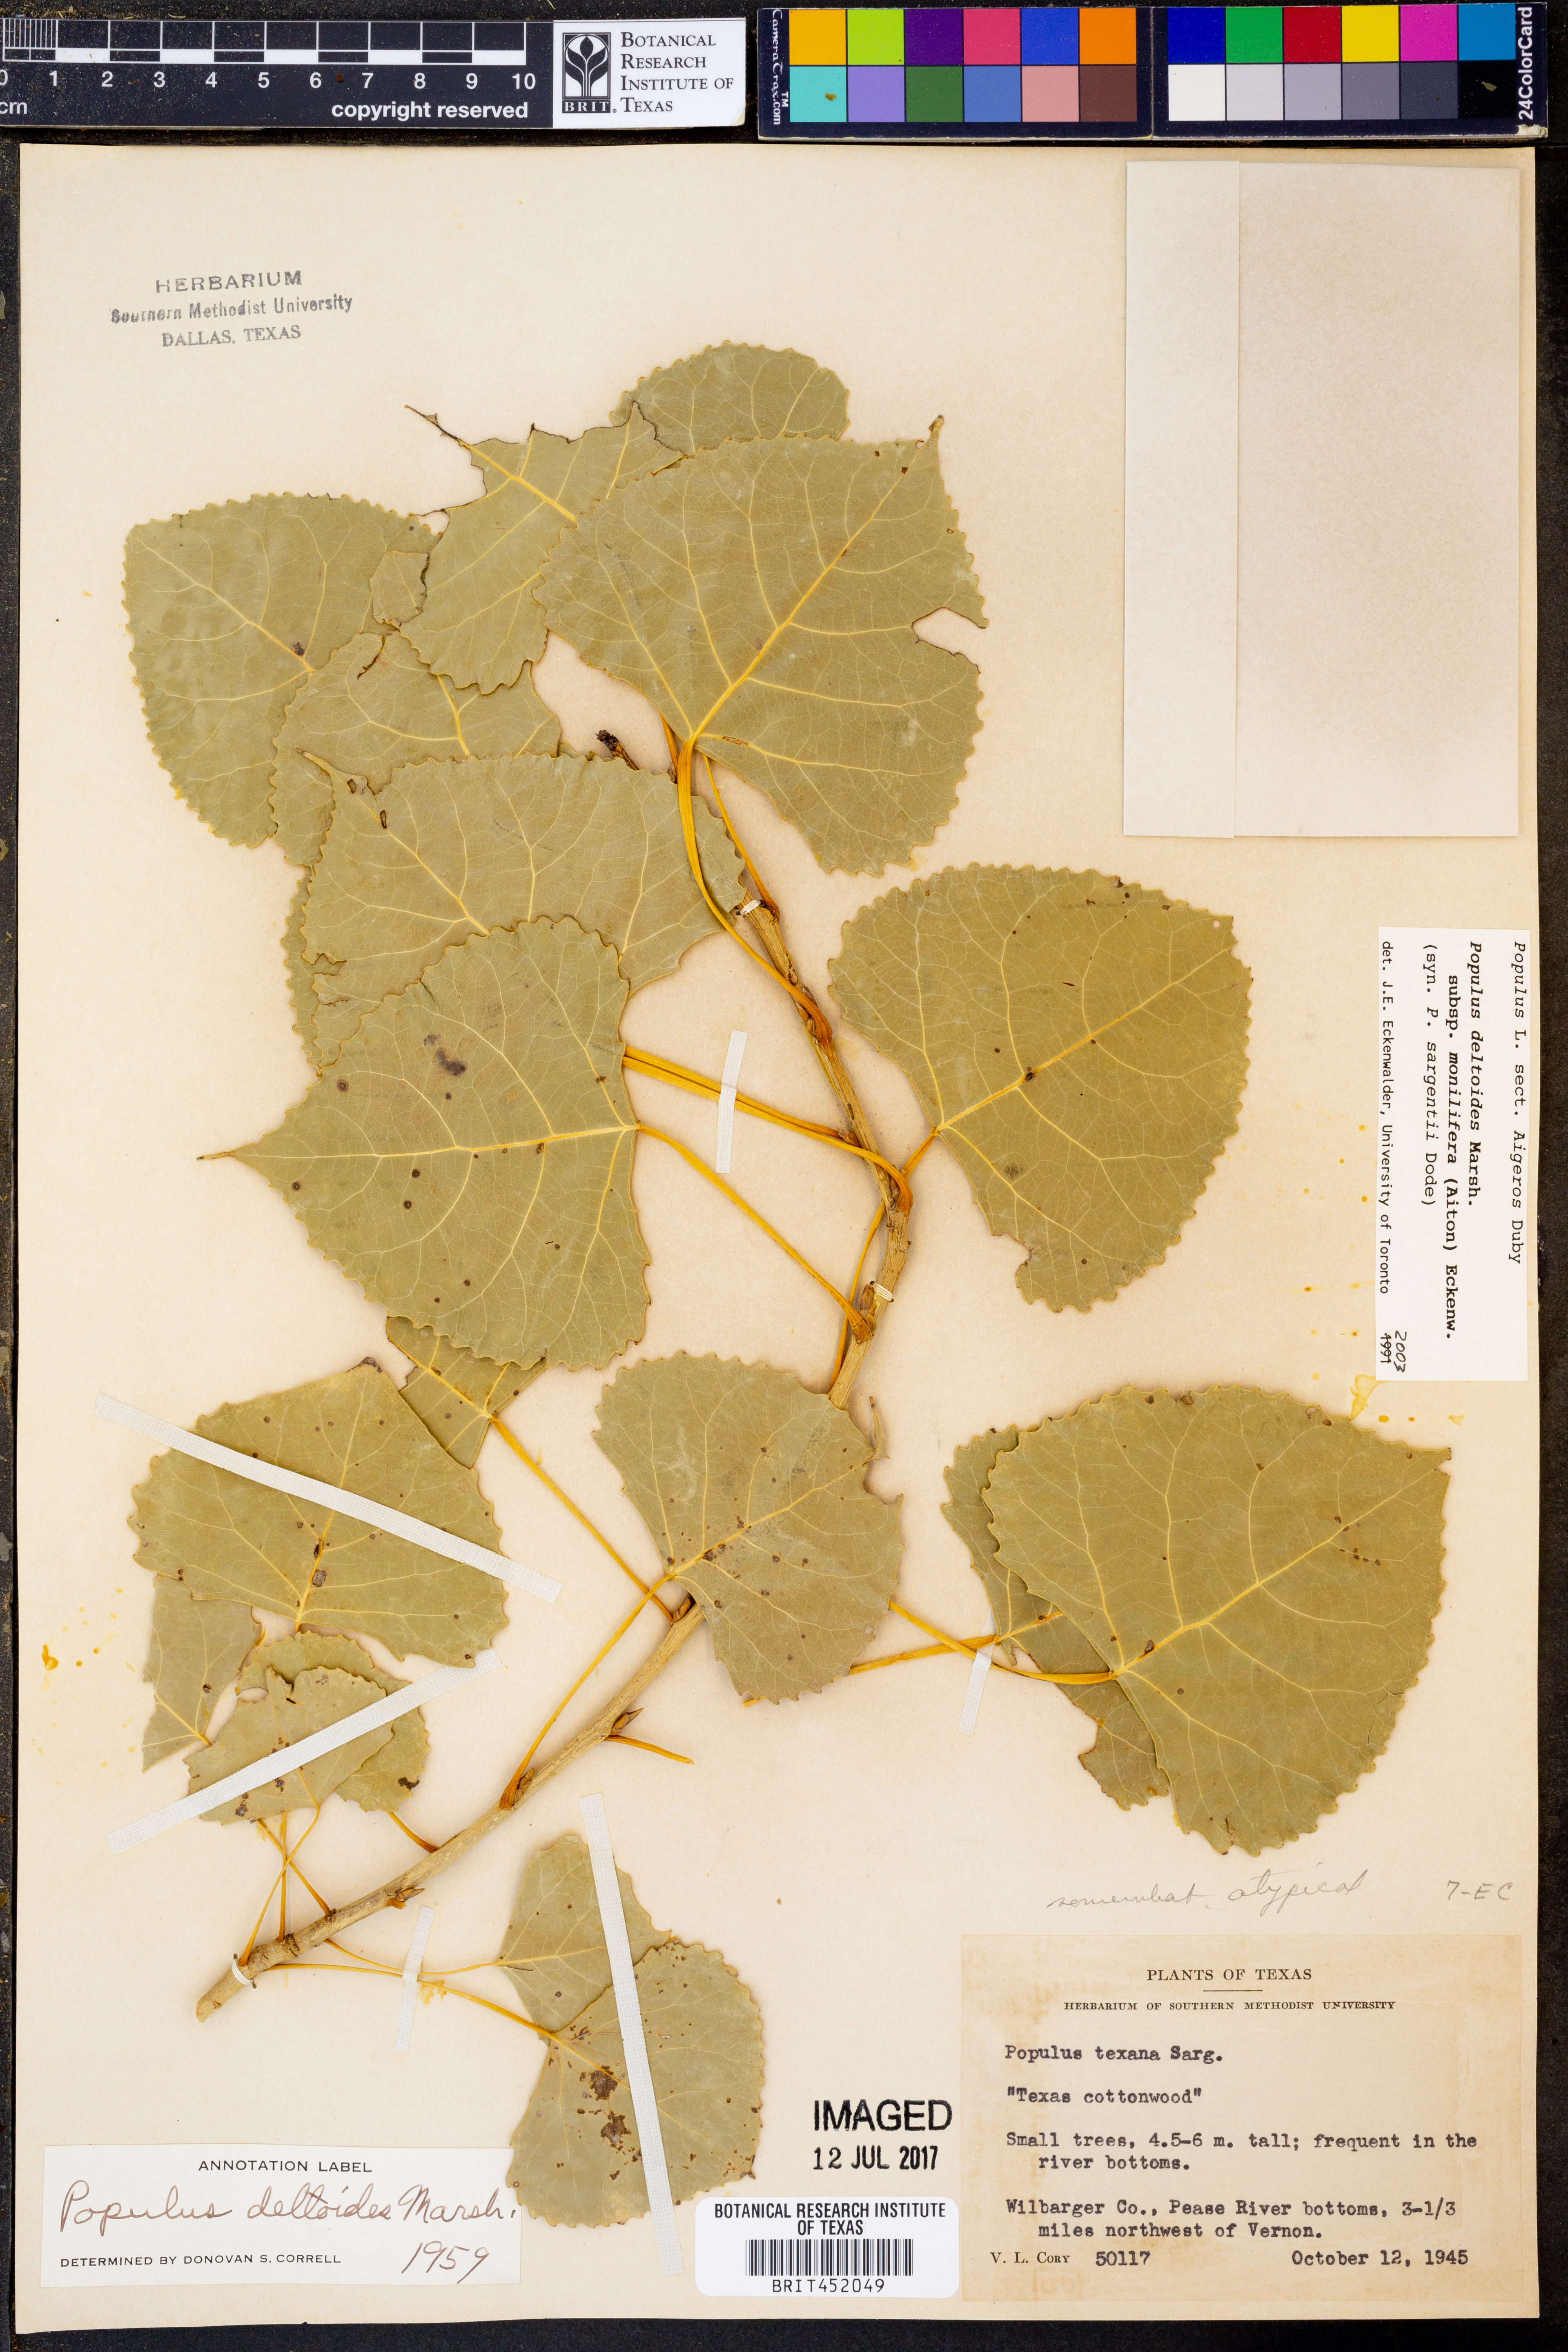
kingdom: Plantae
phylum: Tracheophyta
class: Magnoliopsida
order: Malpighiales
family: Salicaceae
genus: Populus
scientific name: Populus deltoides
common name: Eastern cottonwood
